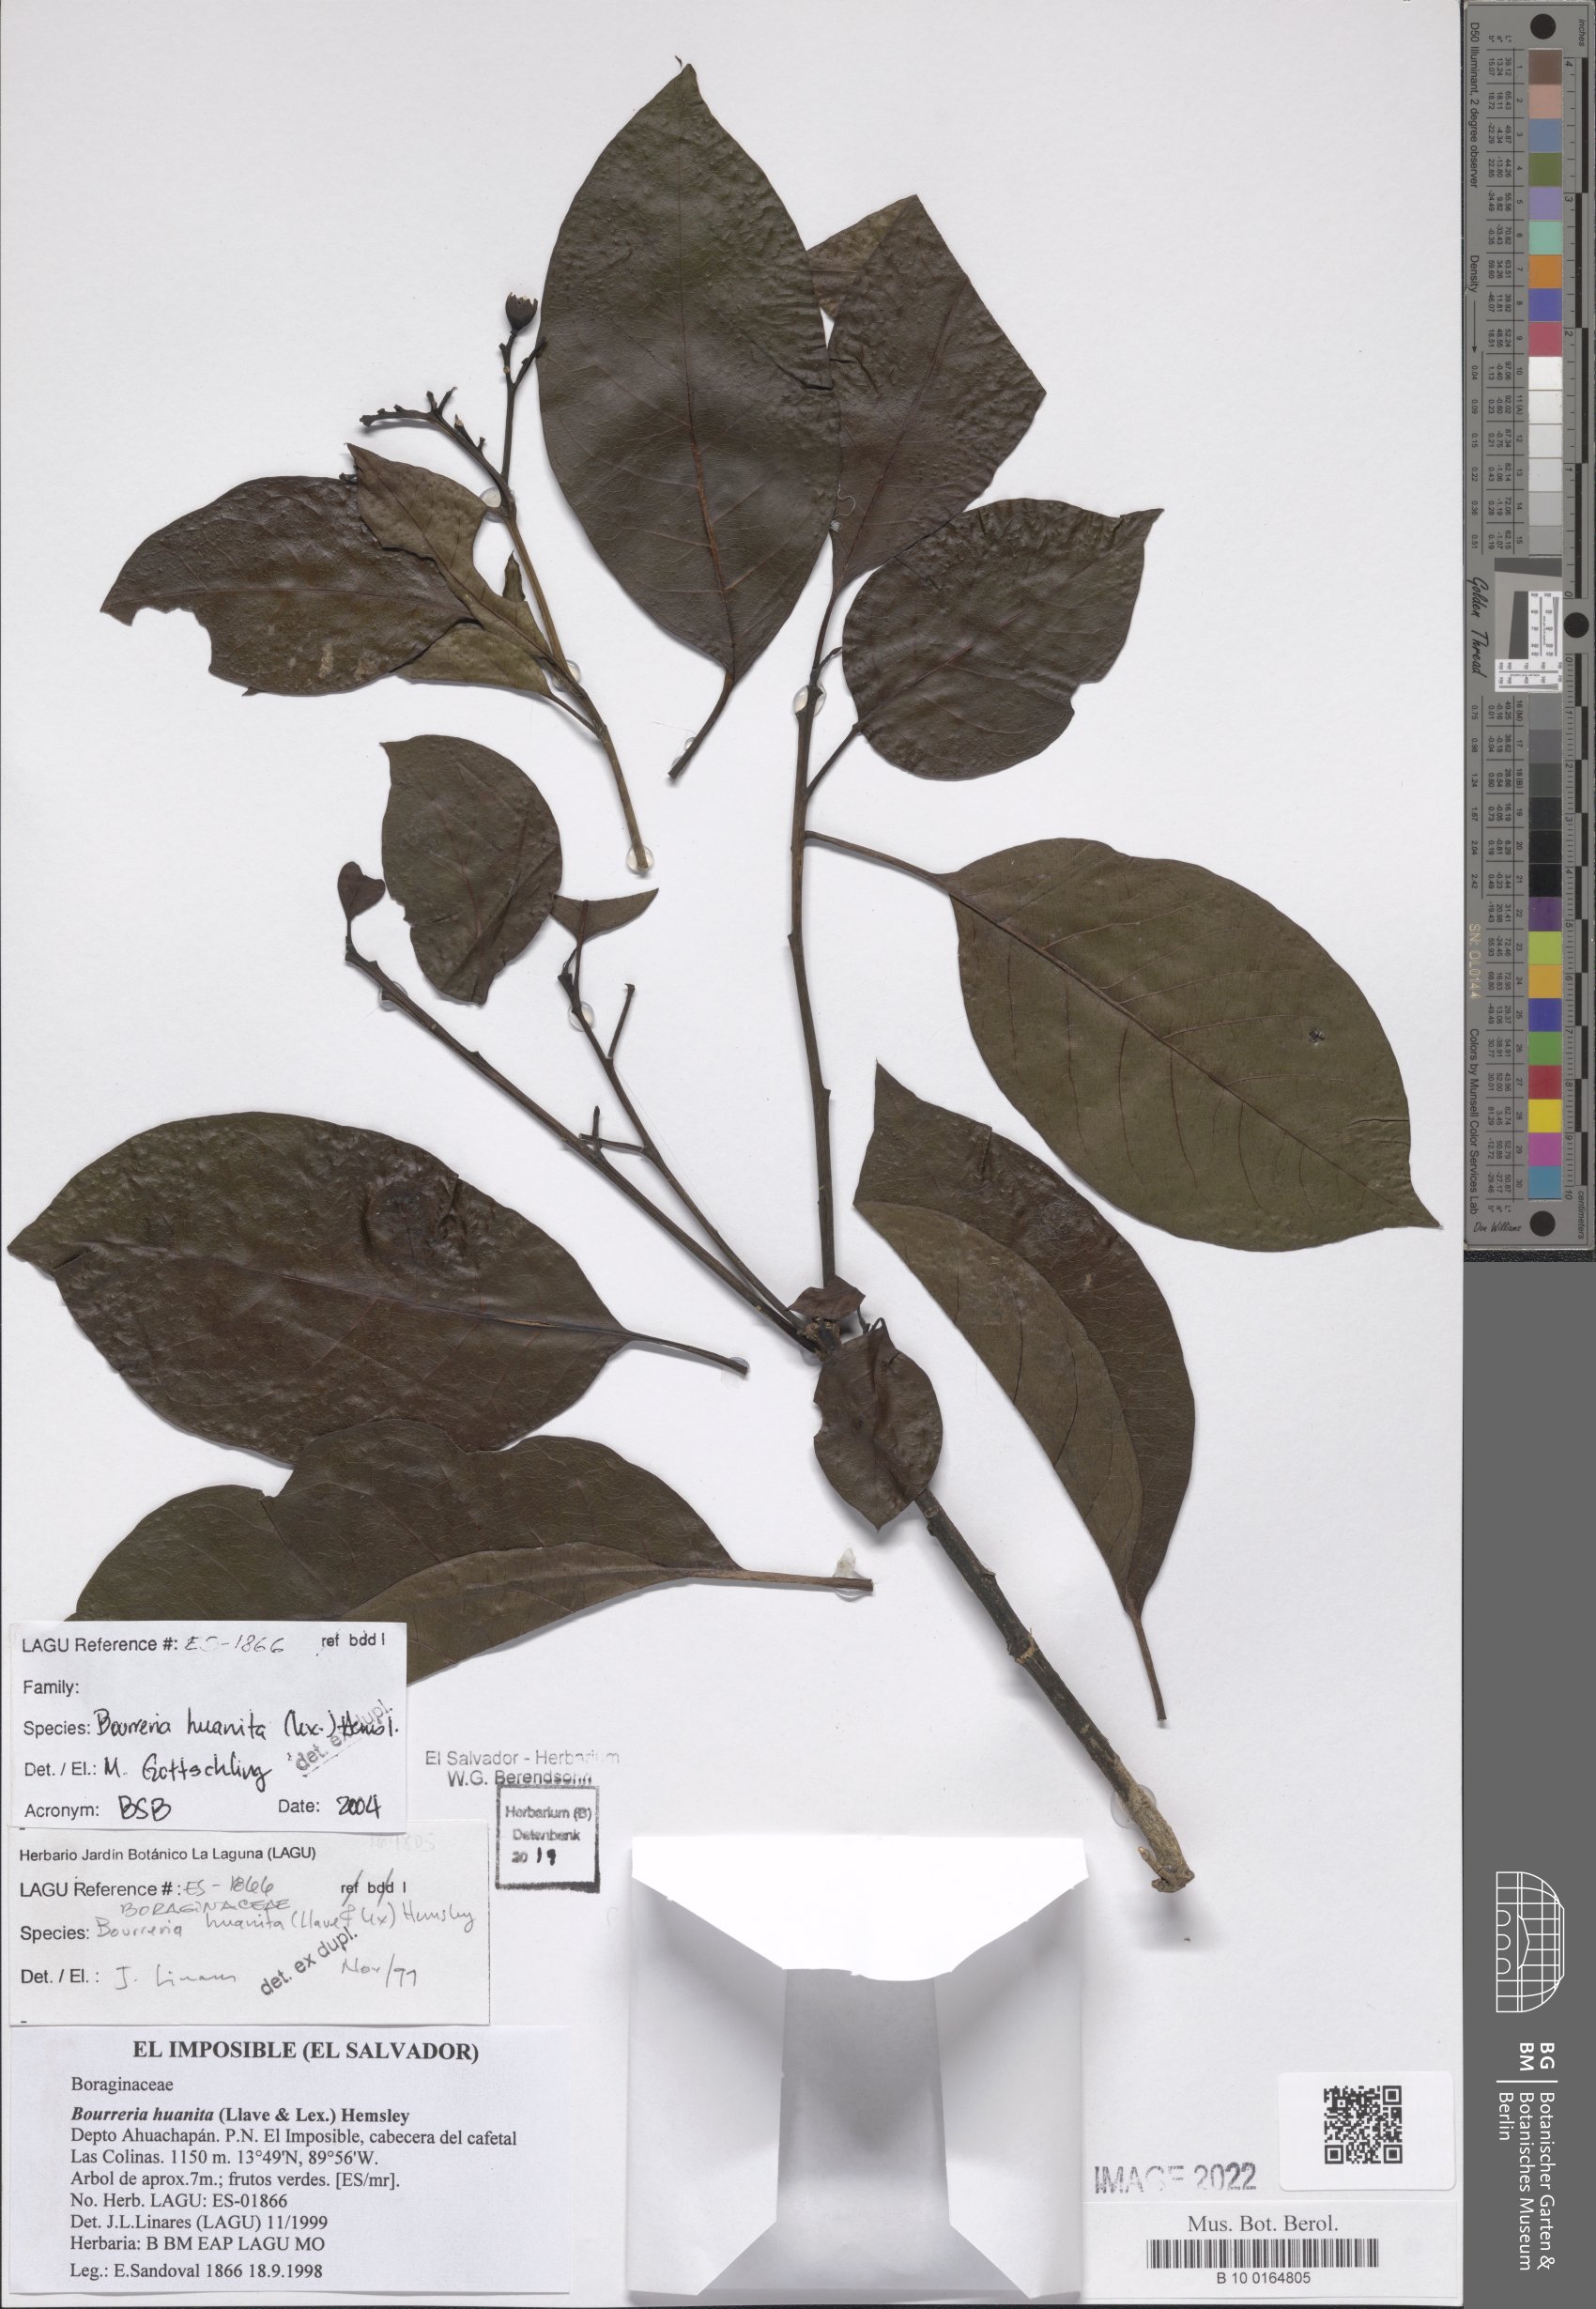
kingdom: Plantae
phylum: Tracheophyta
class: Magnoliopsida
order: Boraginales
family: Ehretiaceae
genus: Bourreria
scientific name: Bourreria huanita
